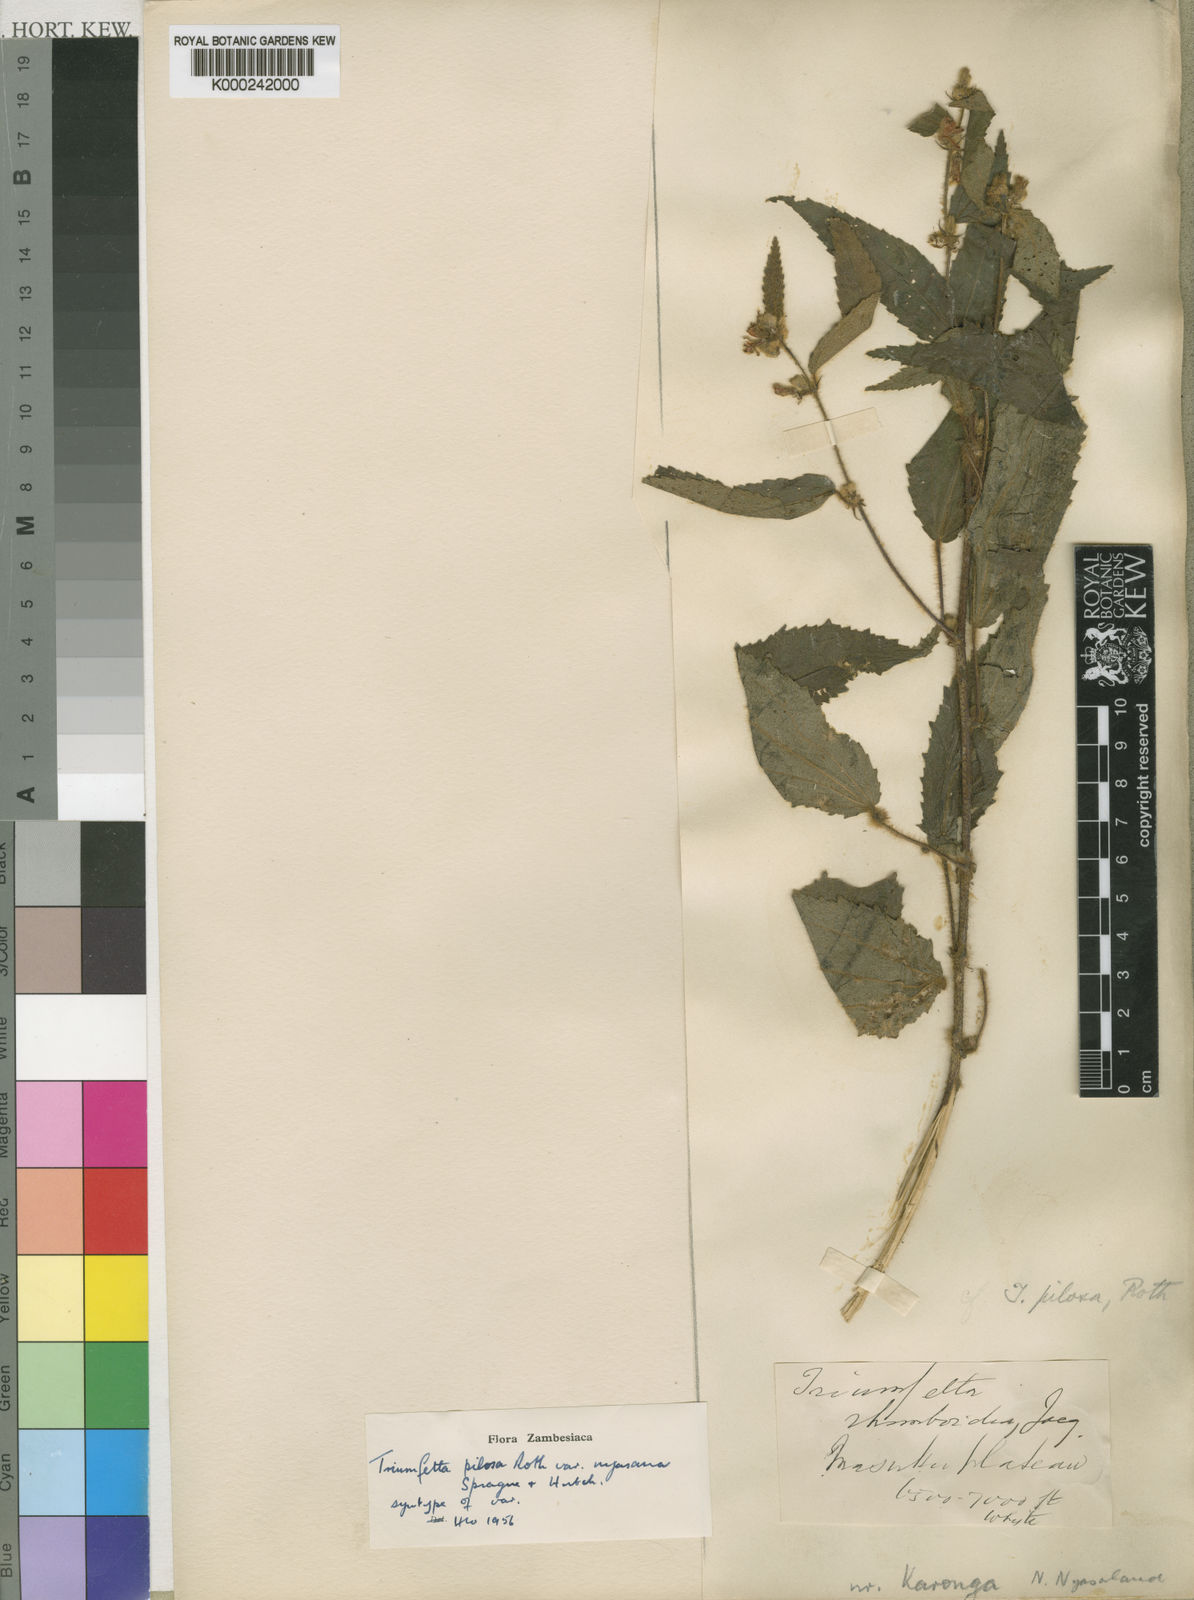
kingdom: Plantae
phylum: Tracheophyta
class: Magnoliopsida
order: Malvales
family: Malvaceae
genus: Triumfetta
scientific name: Triumfetta pilosa
